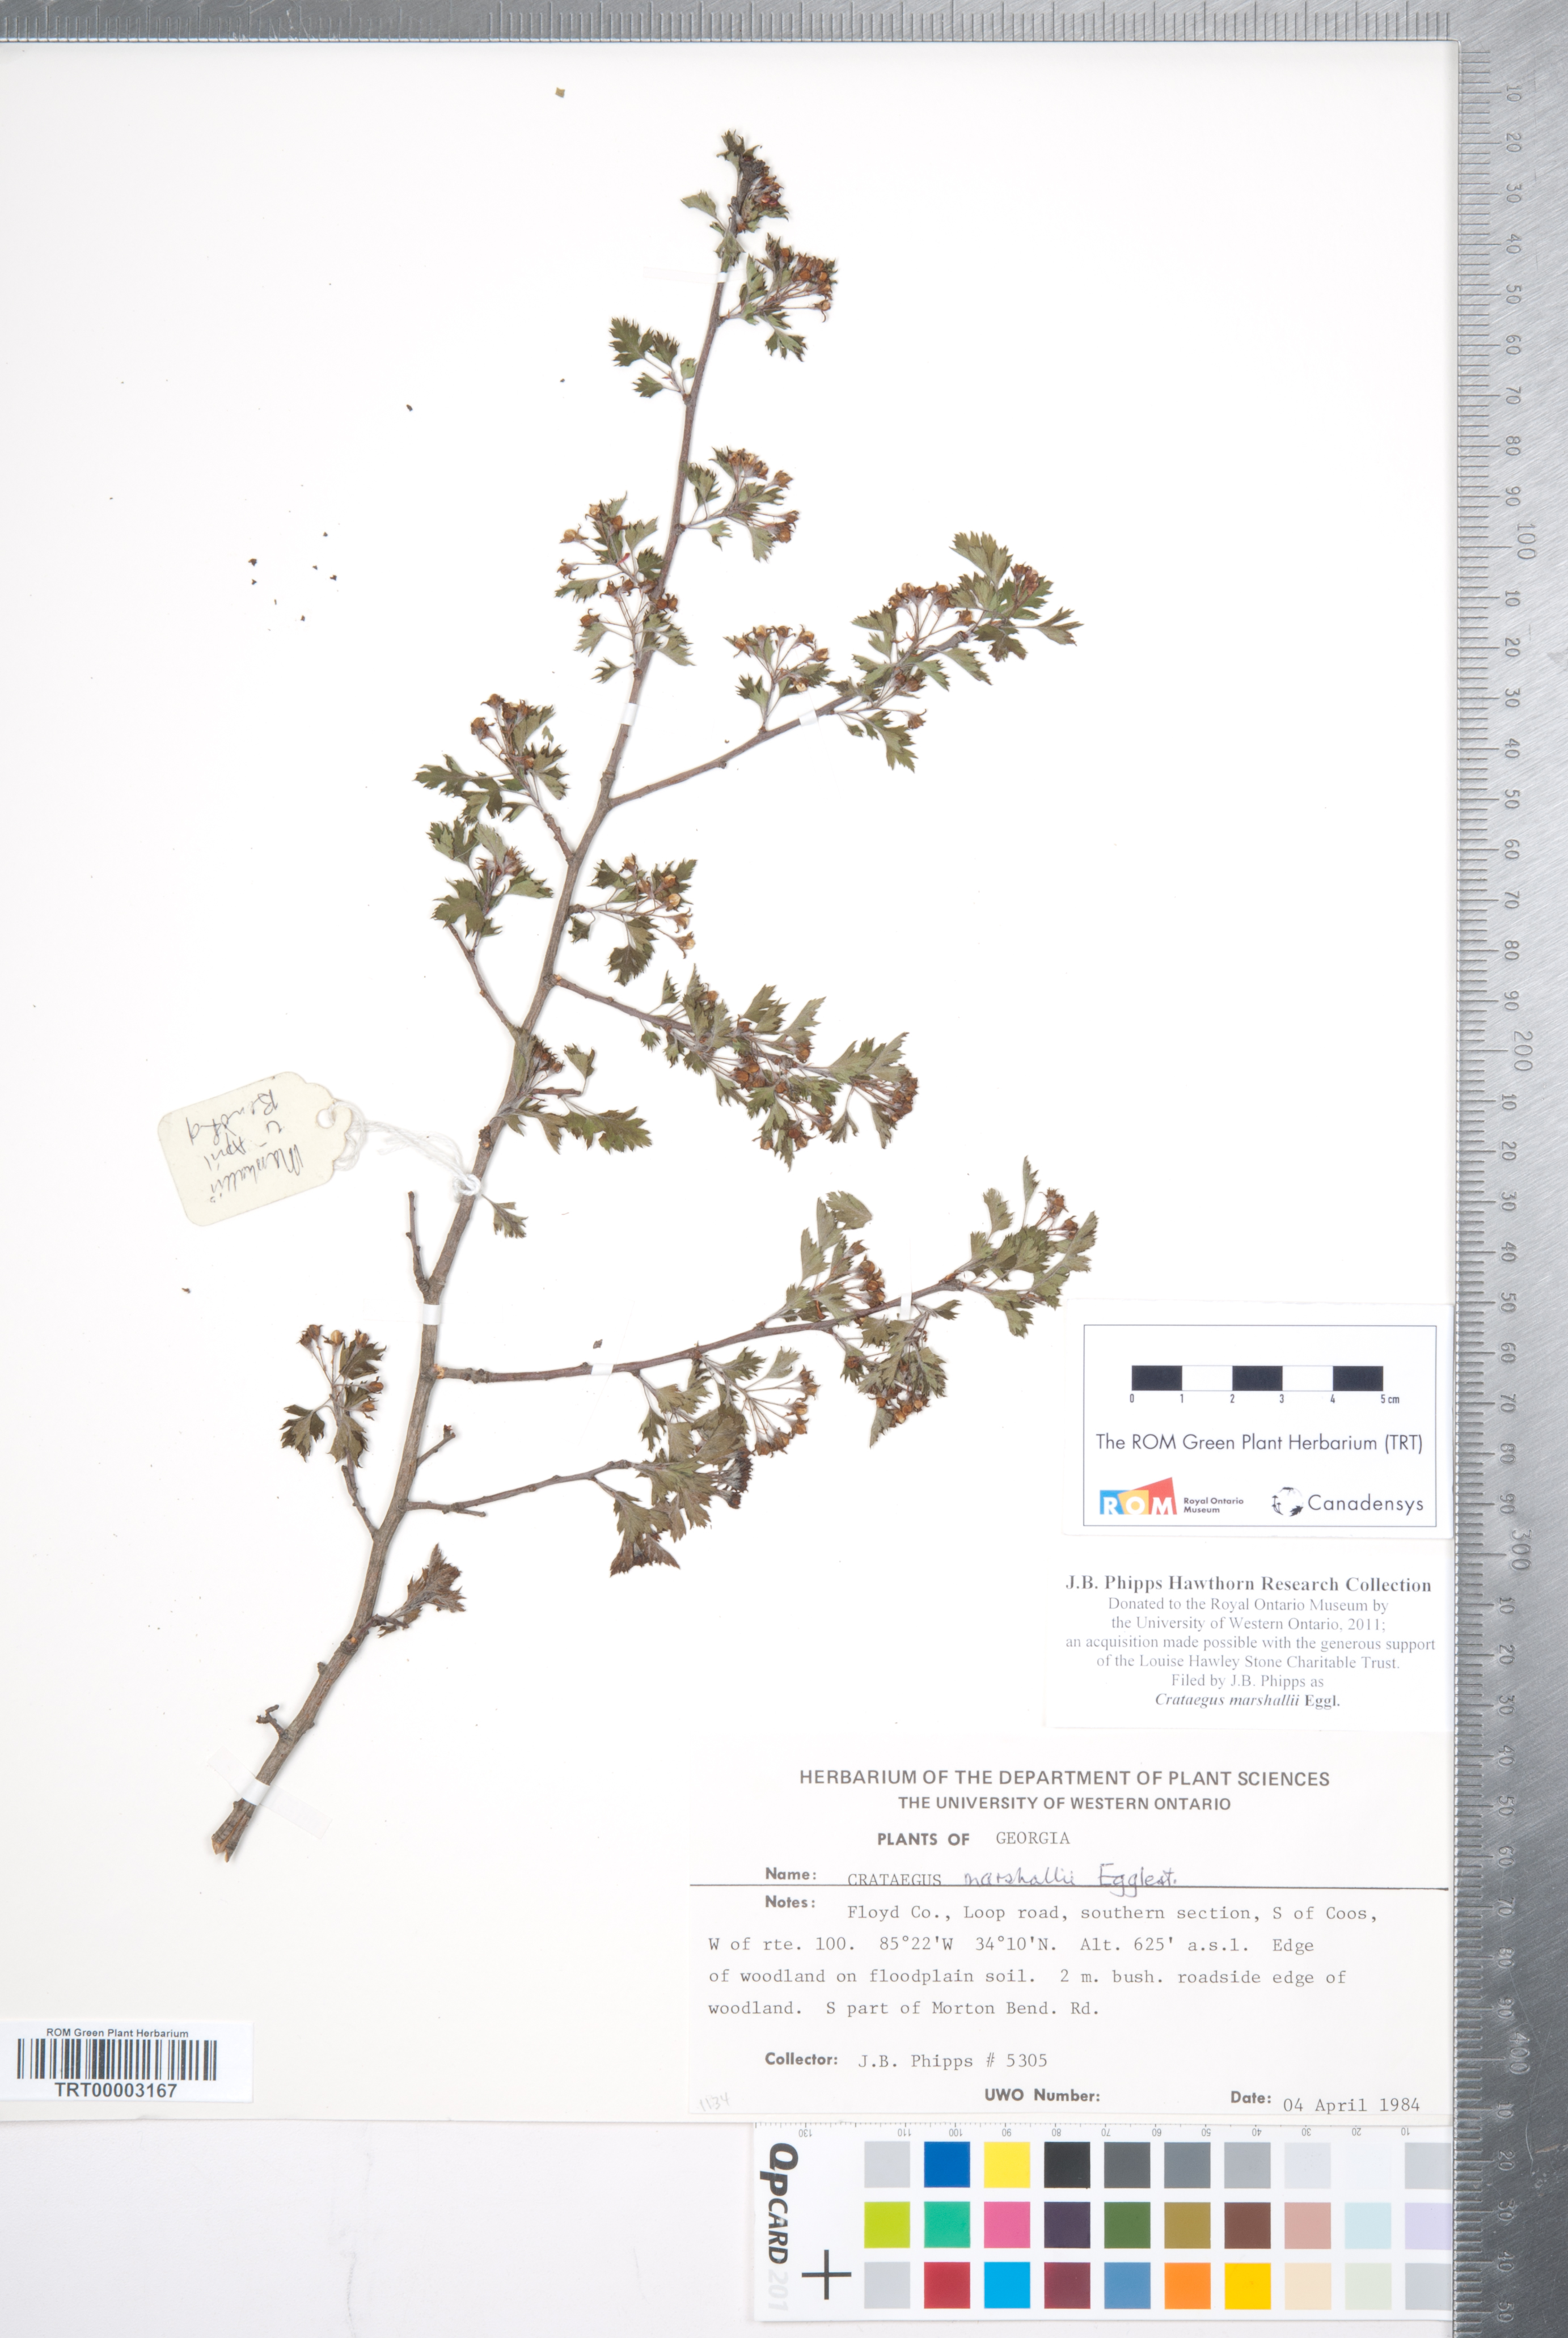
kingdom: Plantae
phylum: Tracheophyta
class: Magnoliopsida
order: Rosales
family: Rosaceae
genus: Crataegus
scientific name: Crataegus marshallii
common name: Parsley-hawthorn
